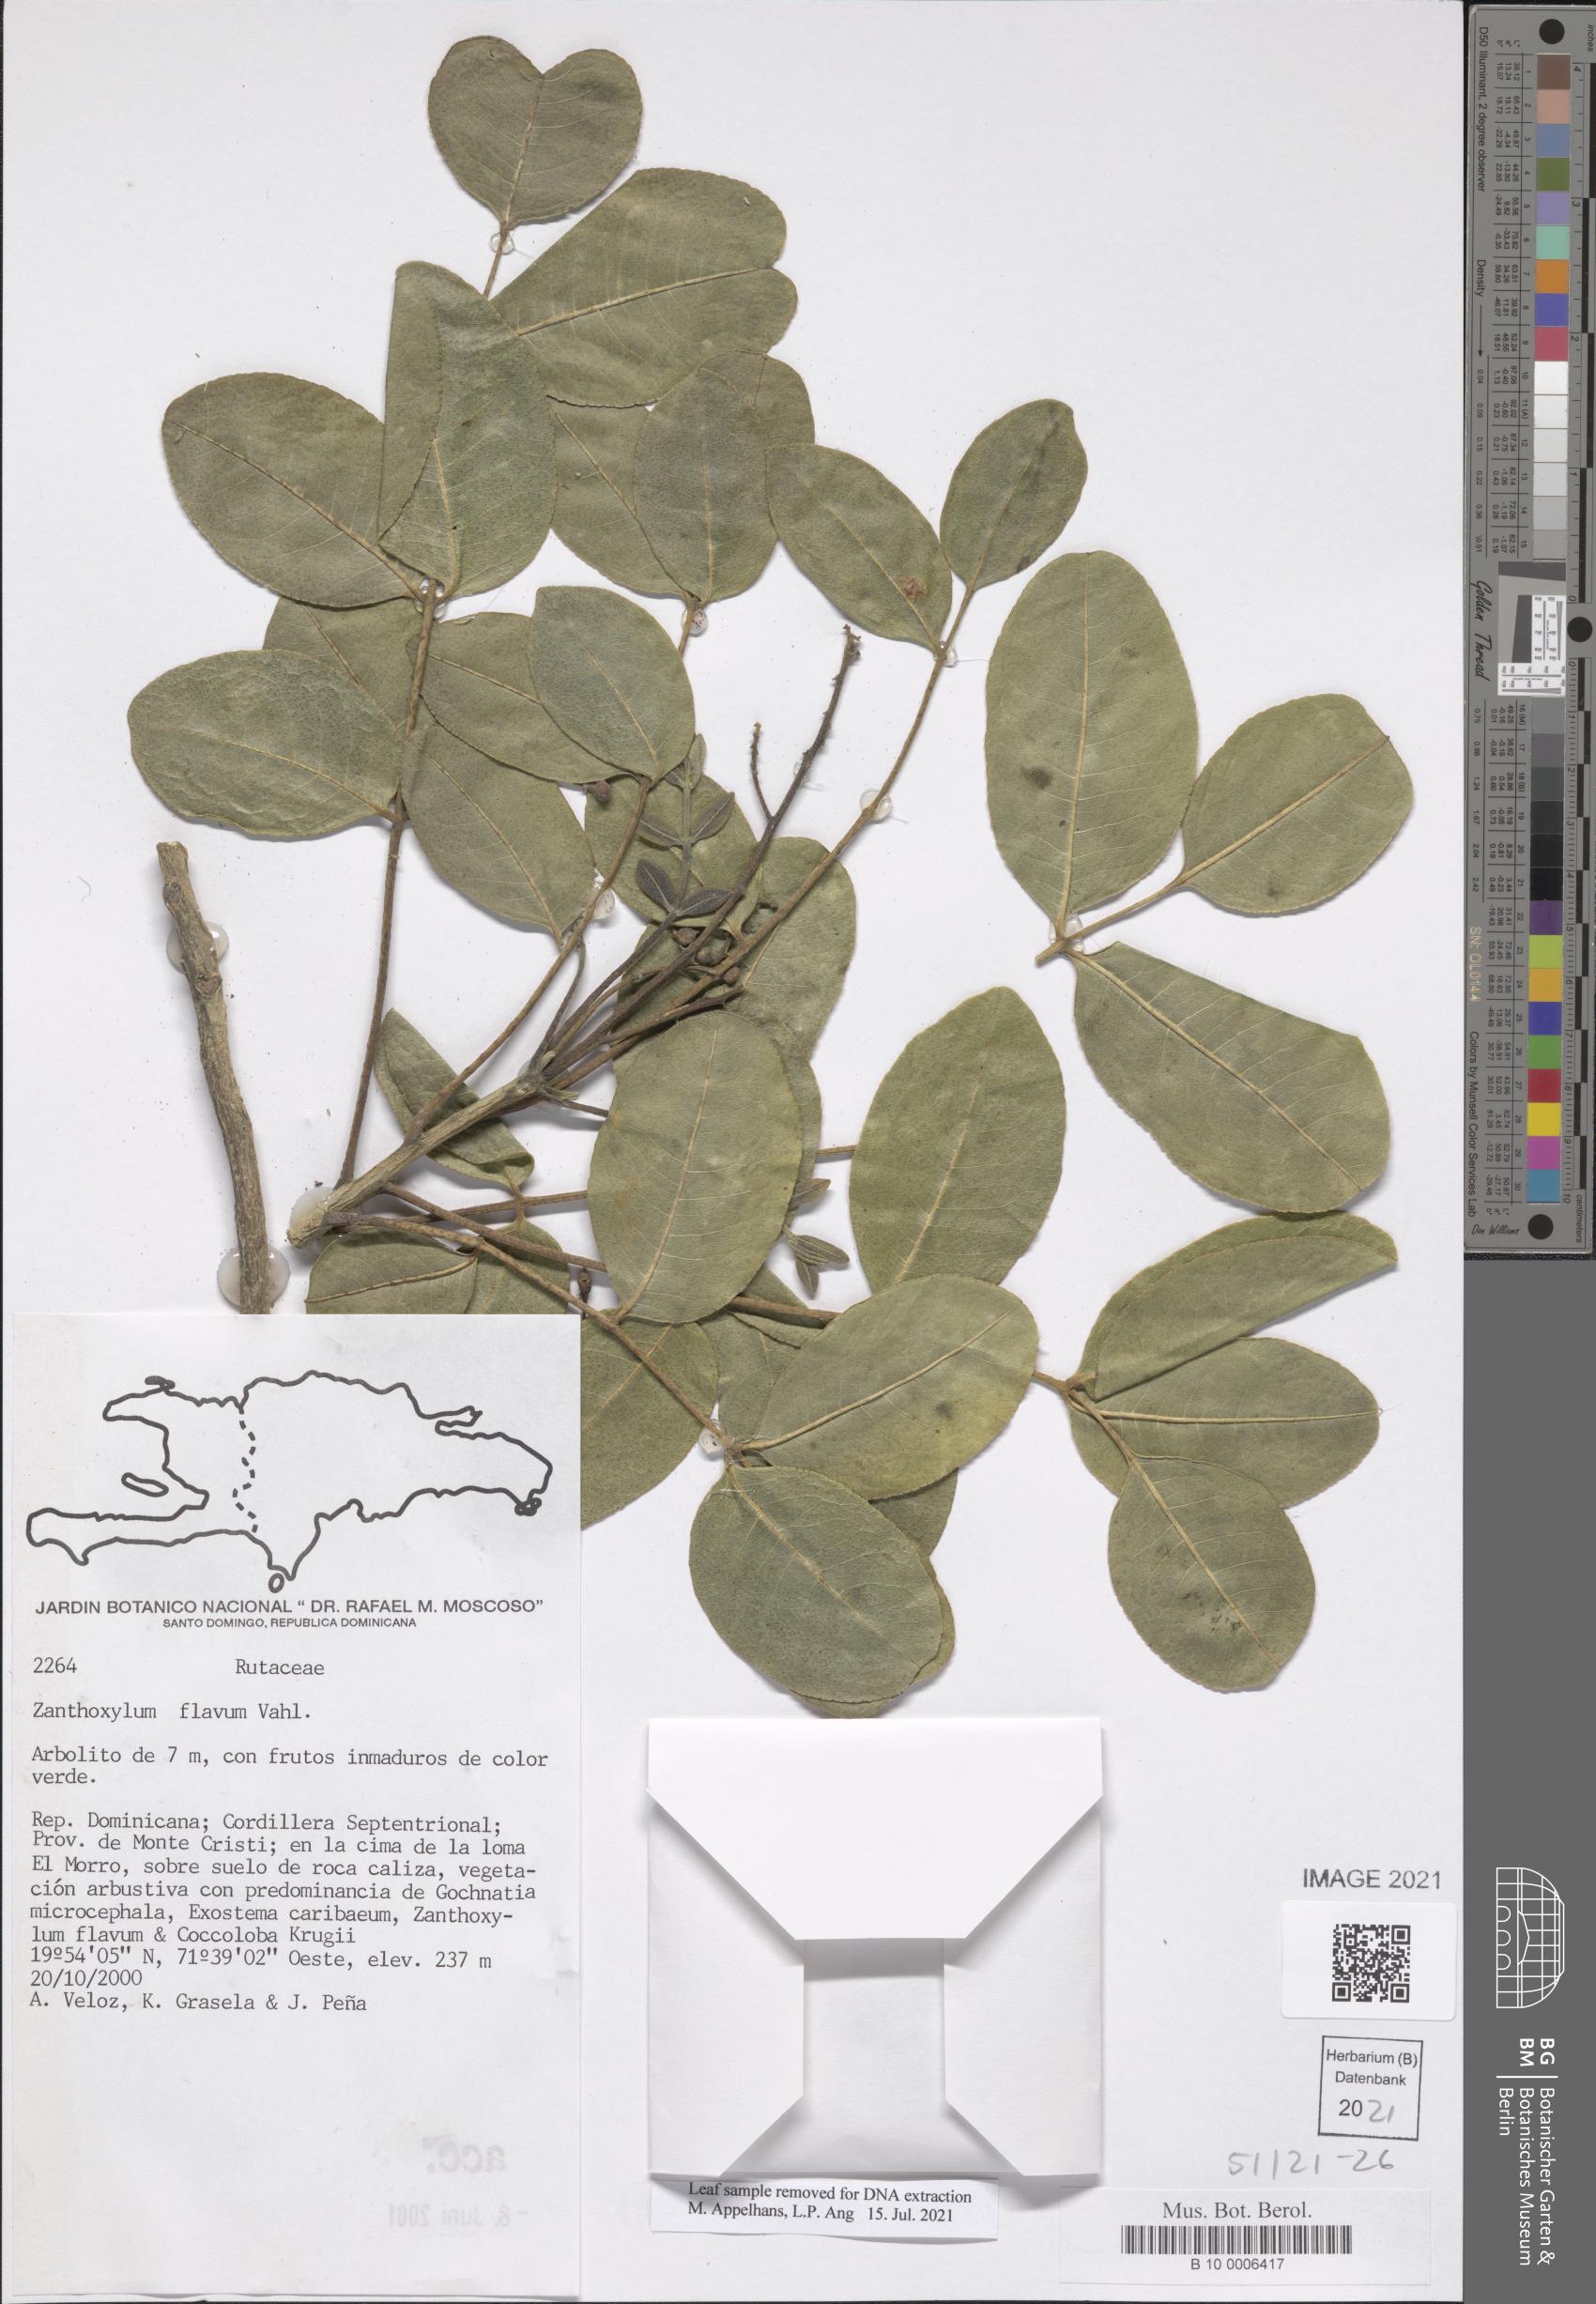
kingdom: Plantae
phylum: Tracheophyta
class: Magnoliopsida
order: Sapindales
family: Rutaceae
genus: Zanthoxylum
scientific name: Zanthoxylum flavum
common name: West indian satinwood
